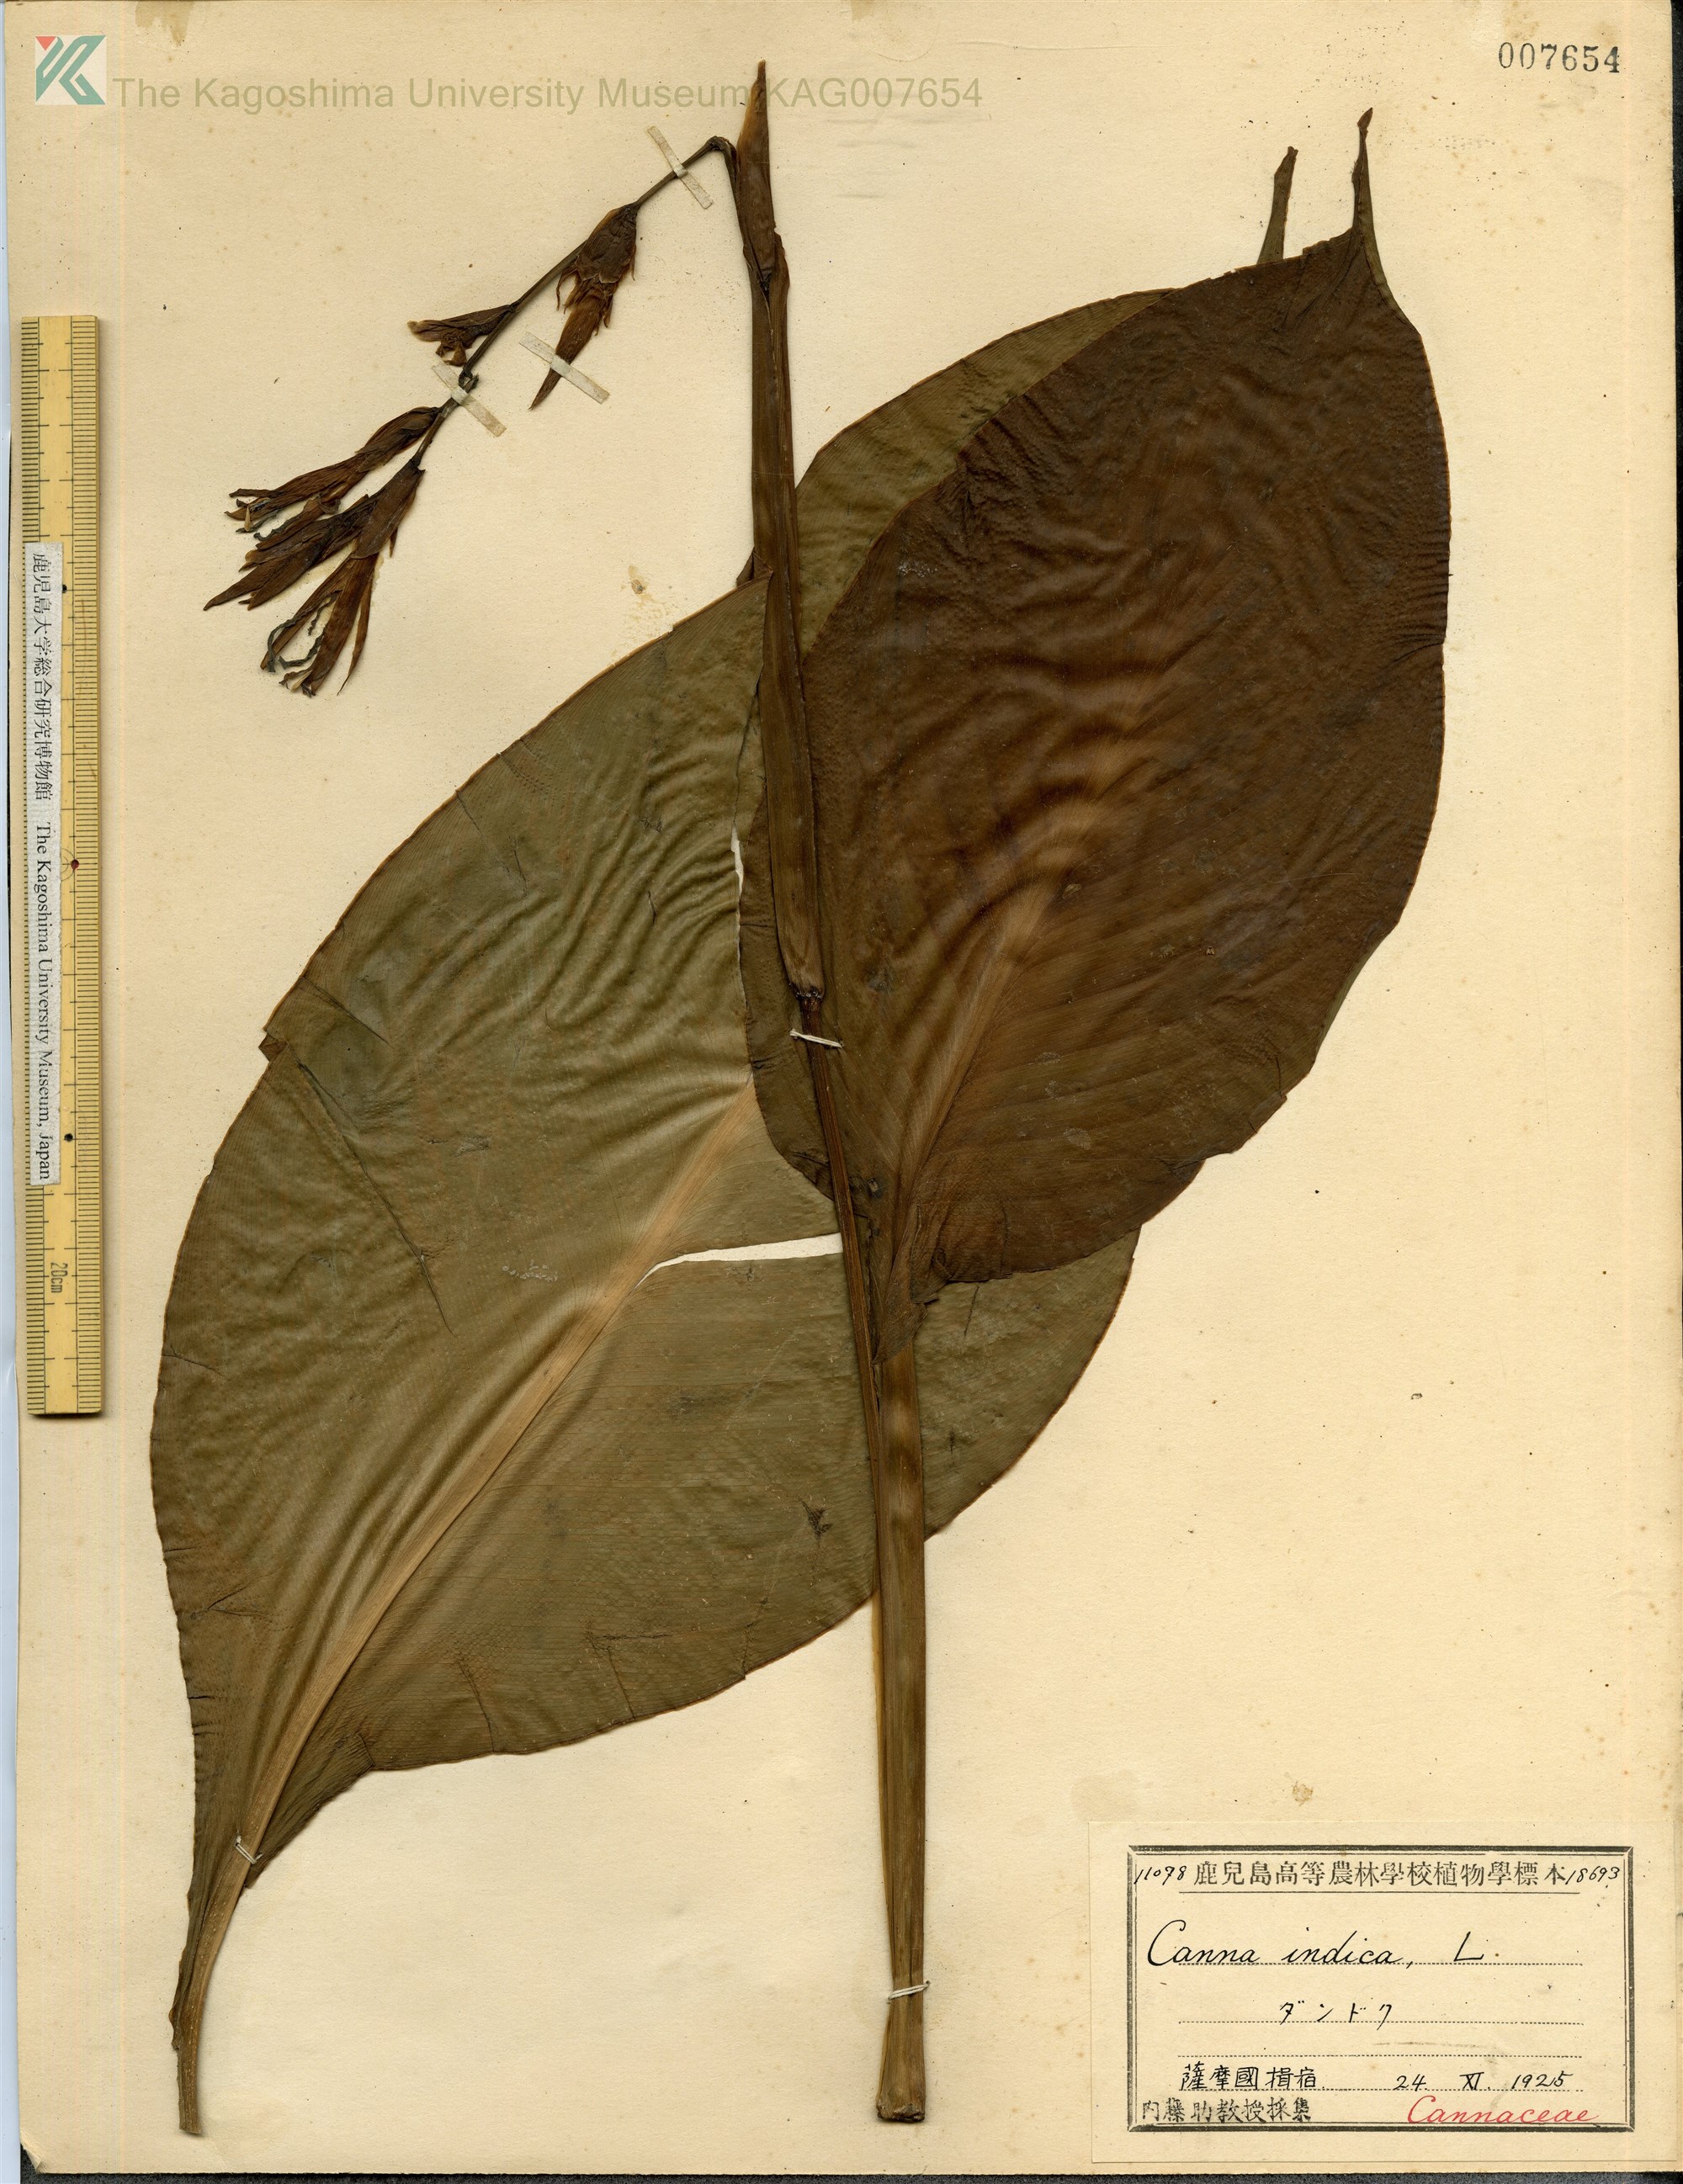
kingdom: Plantae
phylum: Tracheophyta
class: Liliopsida
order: Zingiberales
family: Cannaceae
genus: Canna
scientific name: Canna indica
